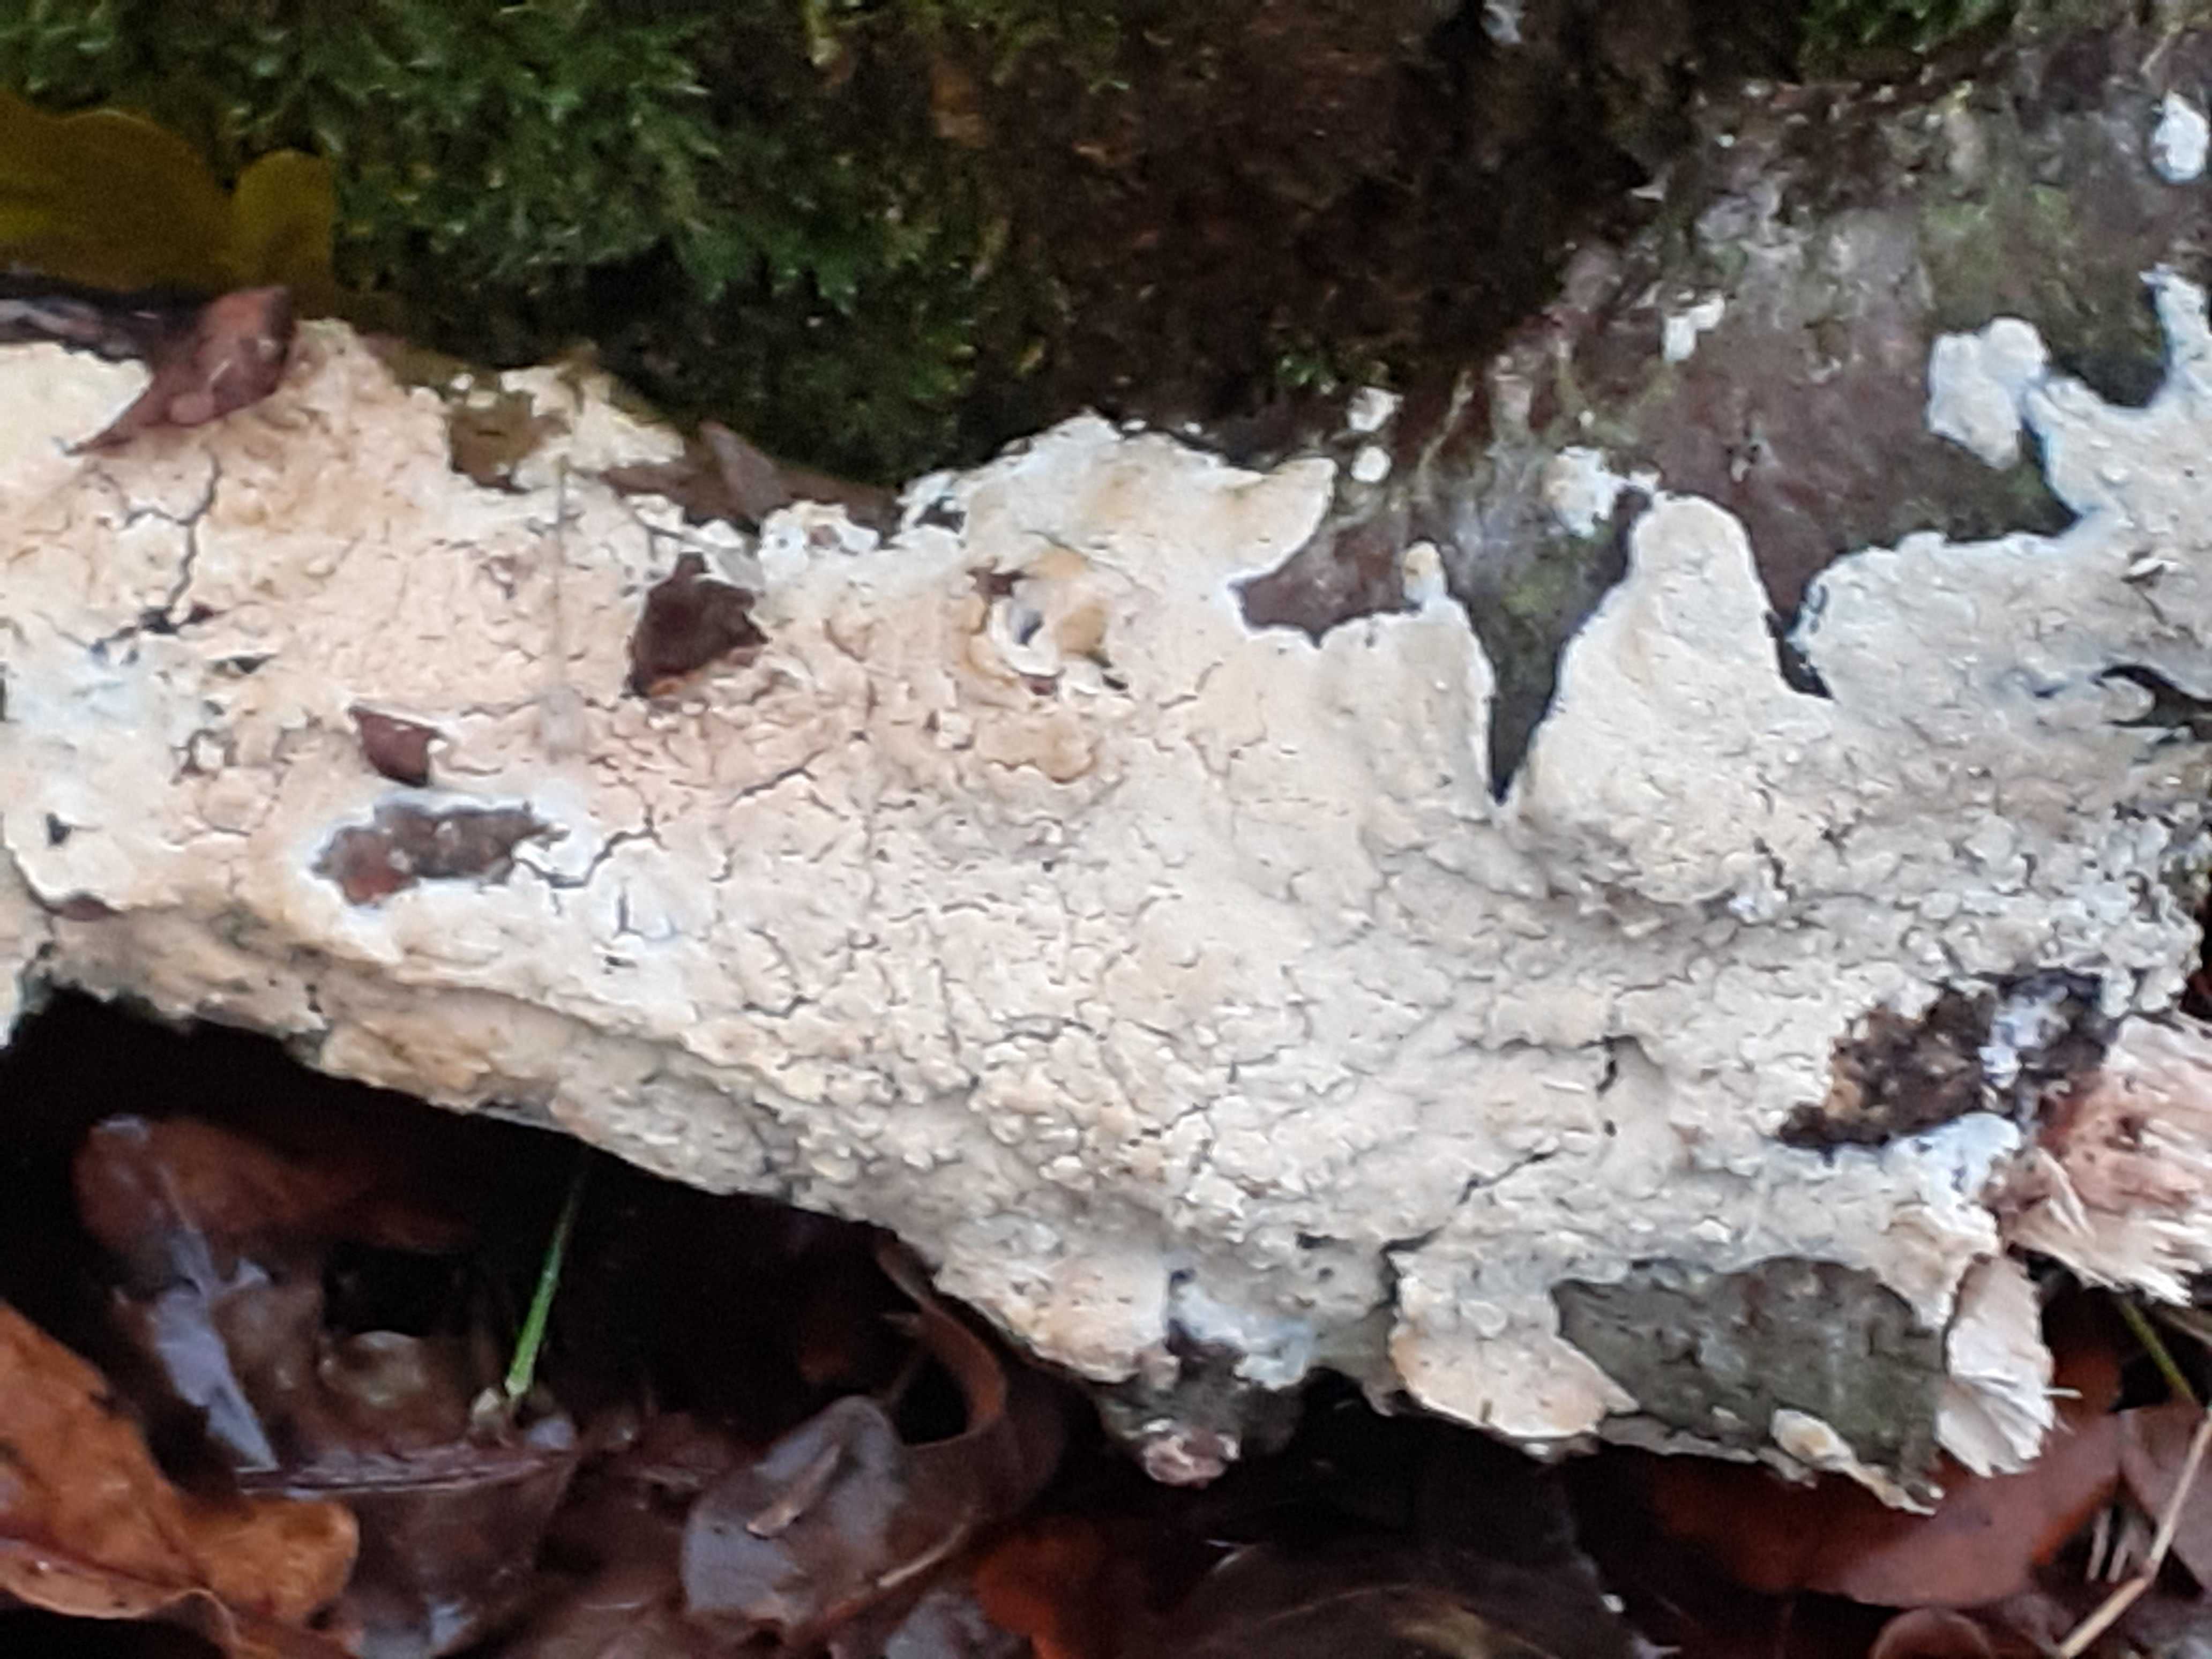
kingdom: Fungi
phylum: Basidiomycota
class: Agaricomycetes
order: Hymenochaetales
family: Schizoporaceae
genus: Xylodon
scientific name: Xylodon subtropicus
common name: labyrint-tandsvamp
